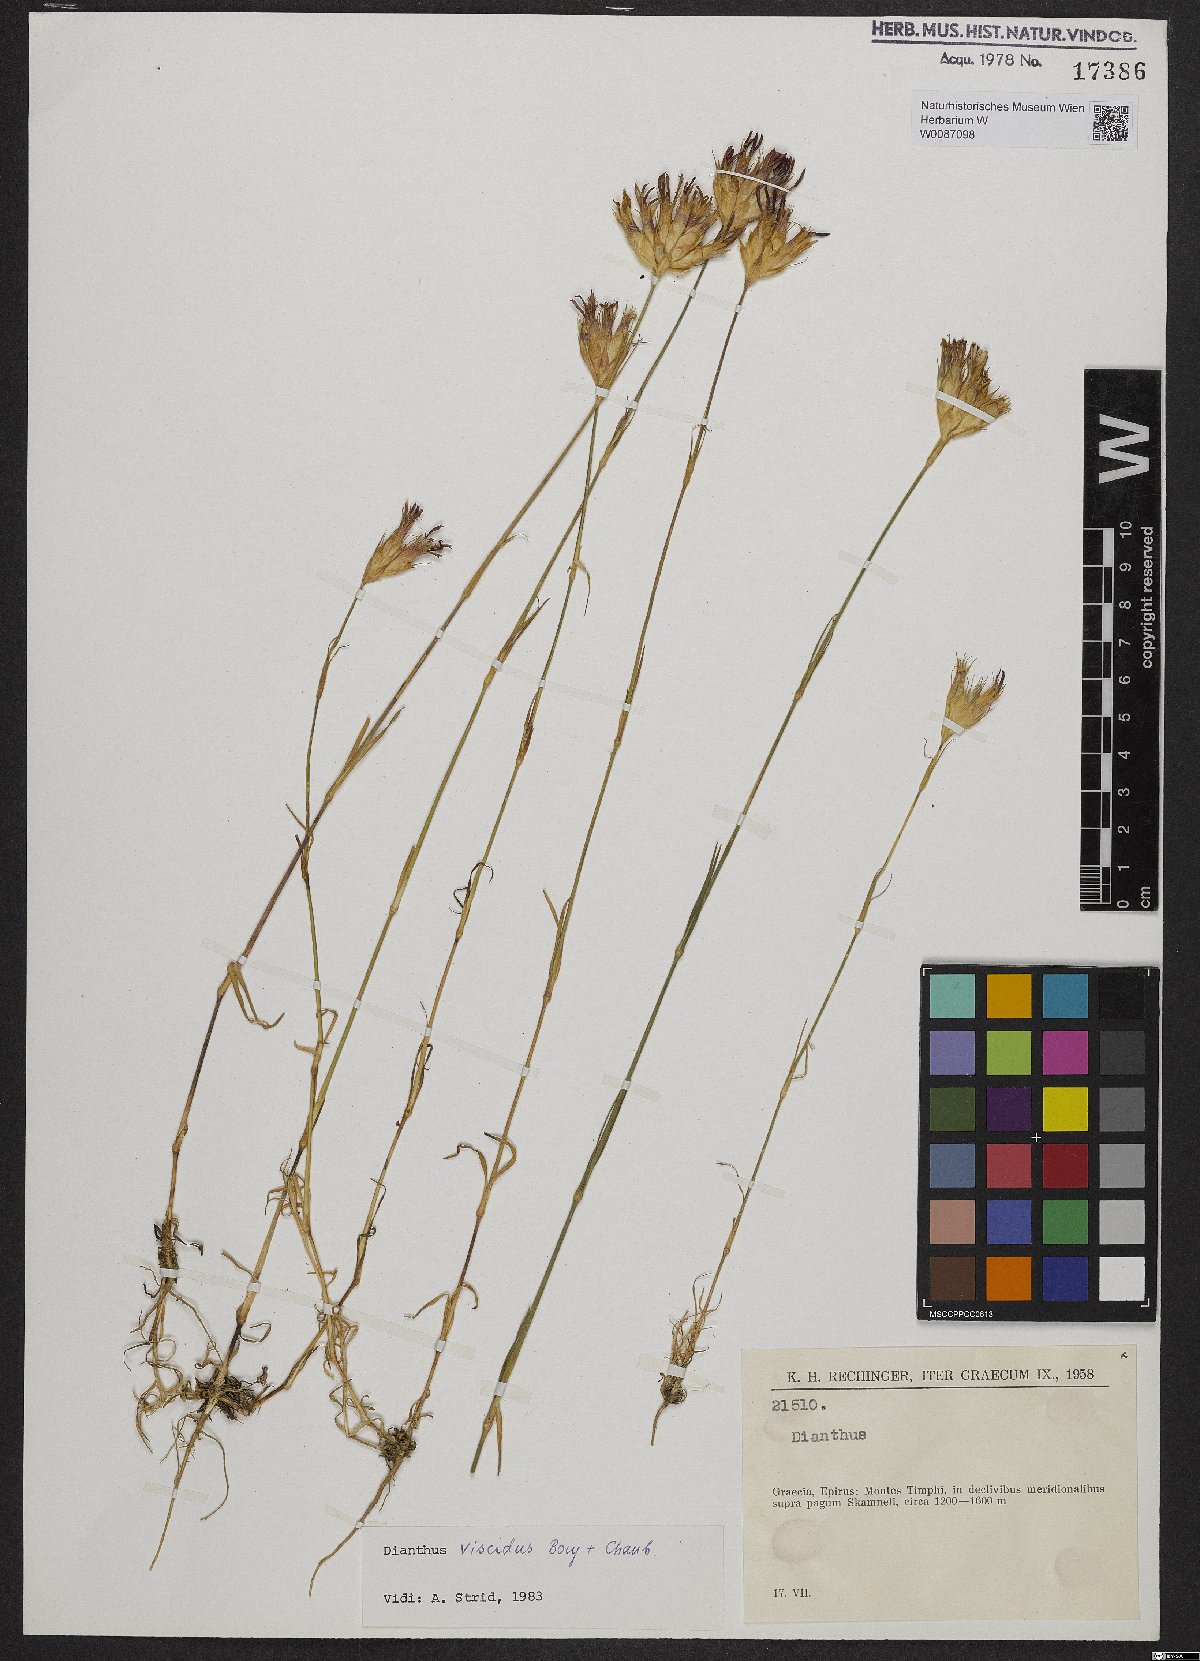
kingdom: Plantae
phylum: Tracheophyta
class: Magnoliopsida
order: Caryophyllales
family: Caryophyllaceae
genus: Dianthus
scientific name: Dianthus viscidus
